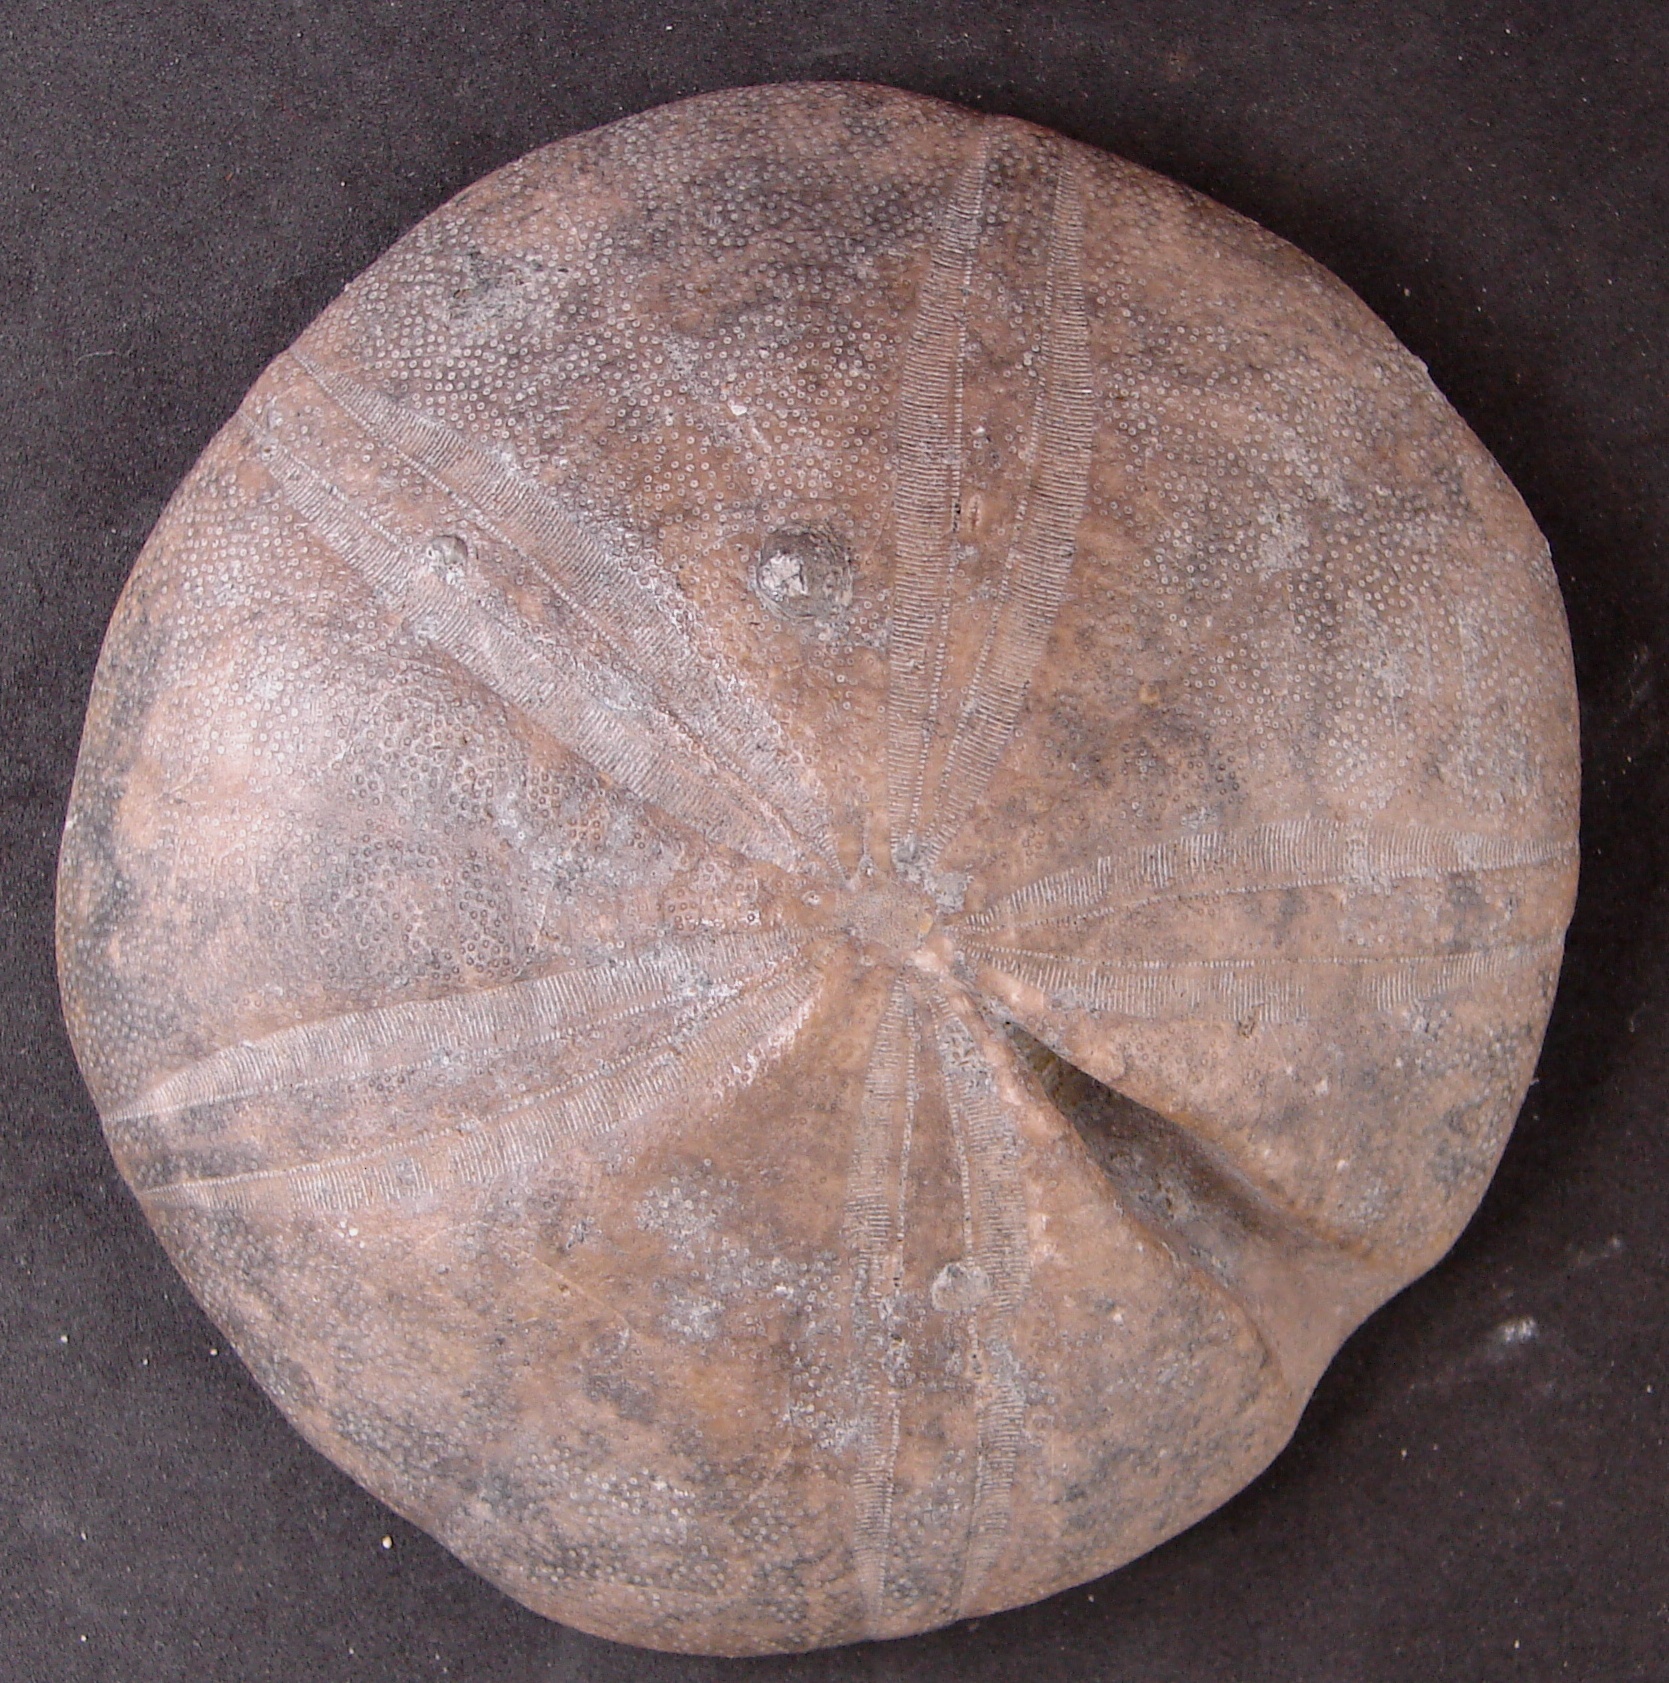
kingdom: Animalia
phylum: Echinodermata
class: Echinoidea
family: Clypeidae
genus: Clypeus
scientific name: Clypeus plotii
